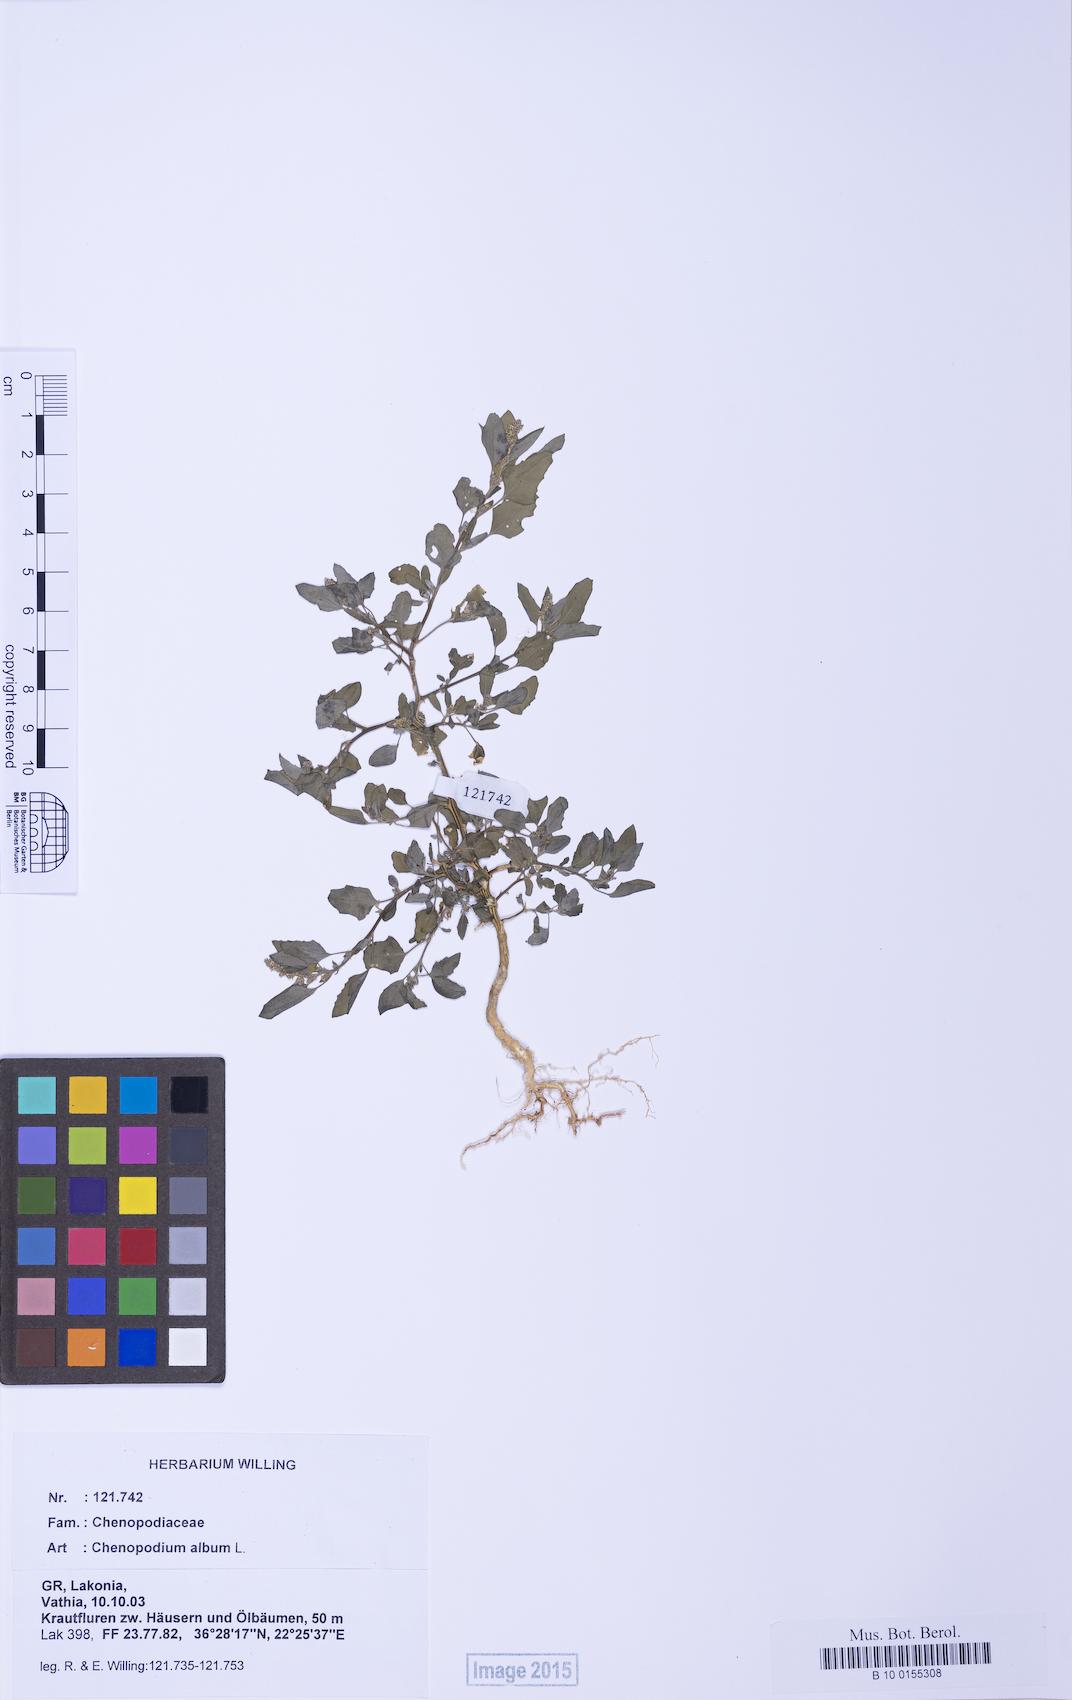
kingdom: Plantae
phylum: Tracheophyta
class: Magnoliopsida
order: Caryophyllales
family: Amaranthaceae
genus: Chenopodium
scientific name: Chenopodium striatiforme
